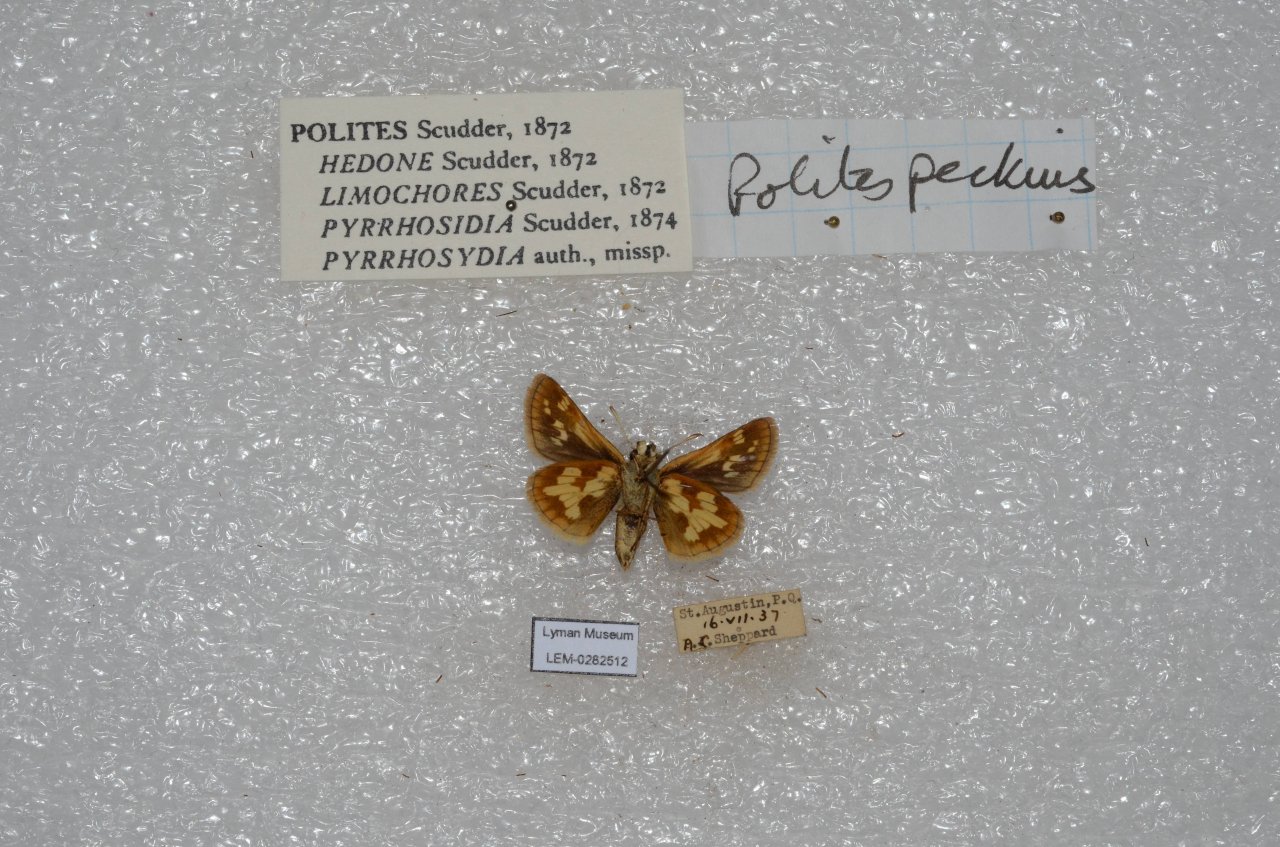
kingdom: Animalia
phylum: Arthropoda
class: Insecta
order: Lepidoptera
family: Hesperiidae
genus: Polites
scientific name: Polites coras
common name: Peck's Skipper
